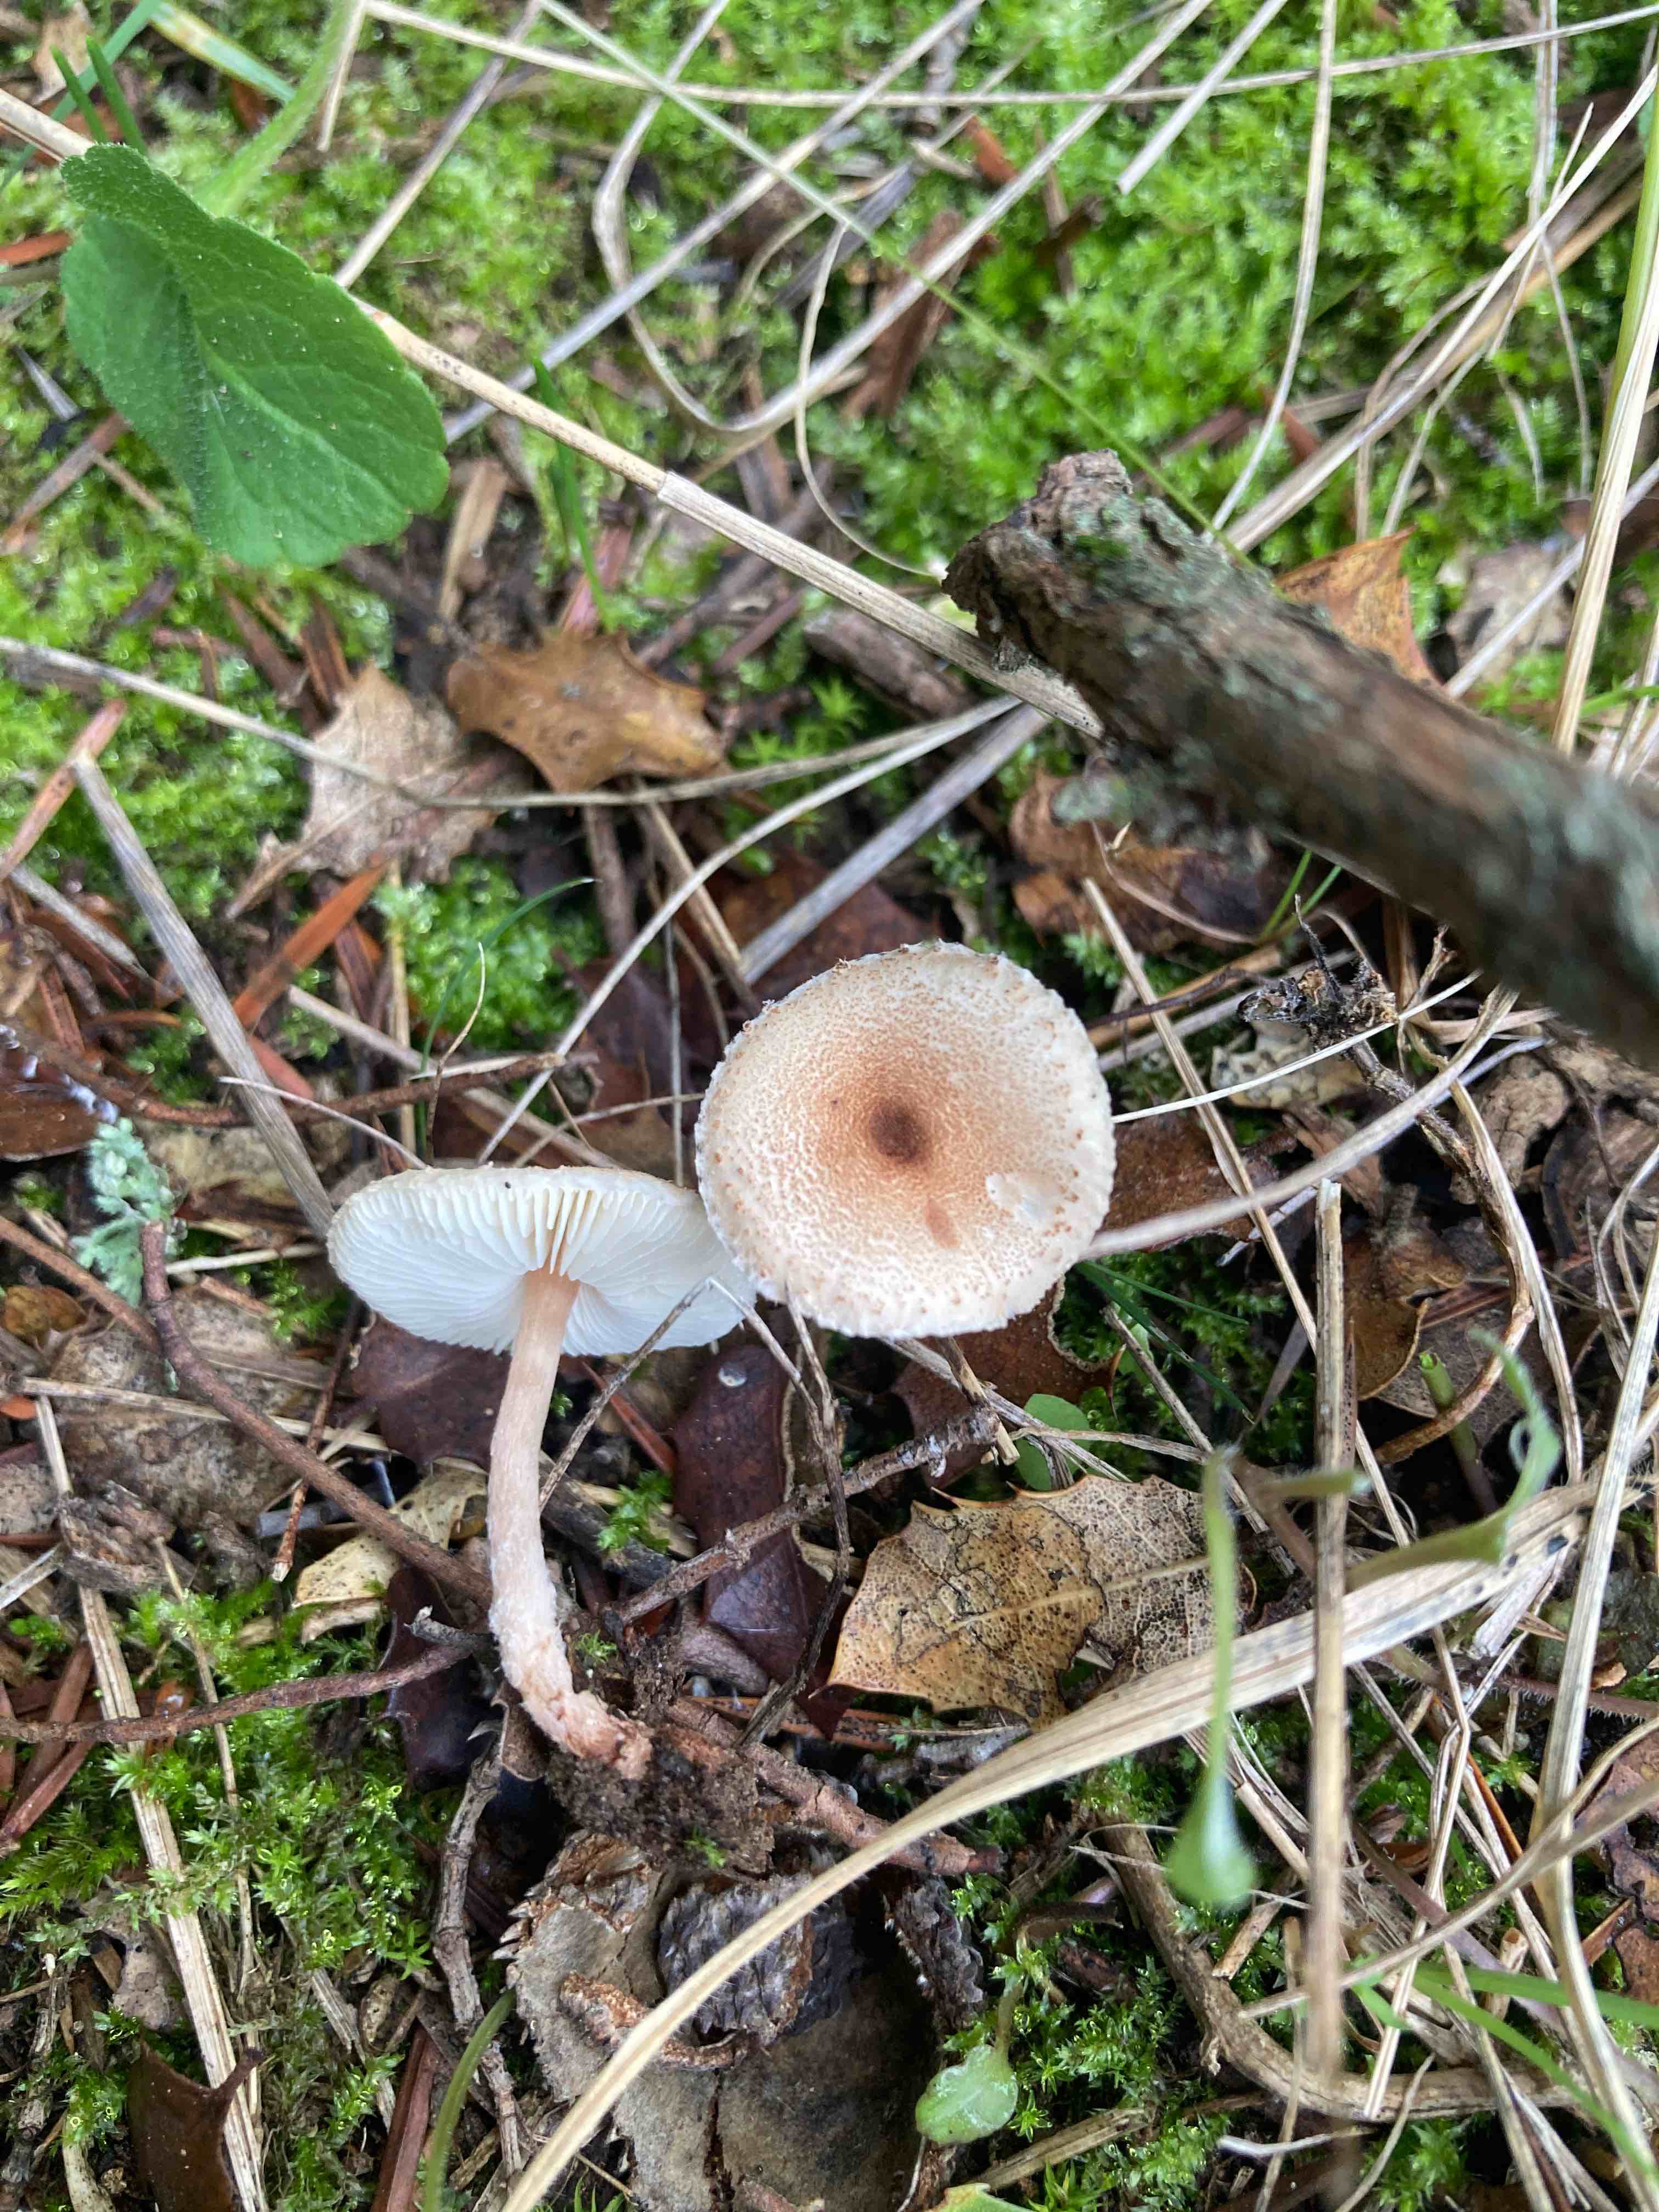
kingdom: Fungi
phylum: Basidiomycota
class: Agaricomycetes
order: Agaricales
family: Agaricaceae
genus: Lepiota
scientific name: Lepiota echinella
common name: finskællet parasolhat
